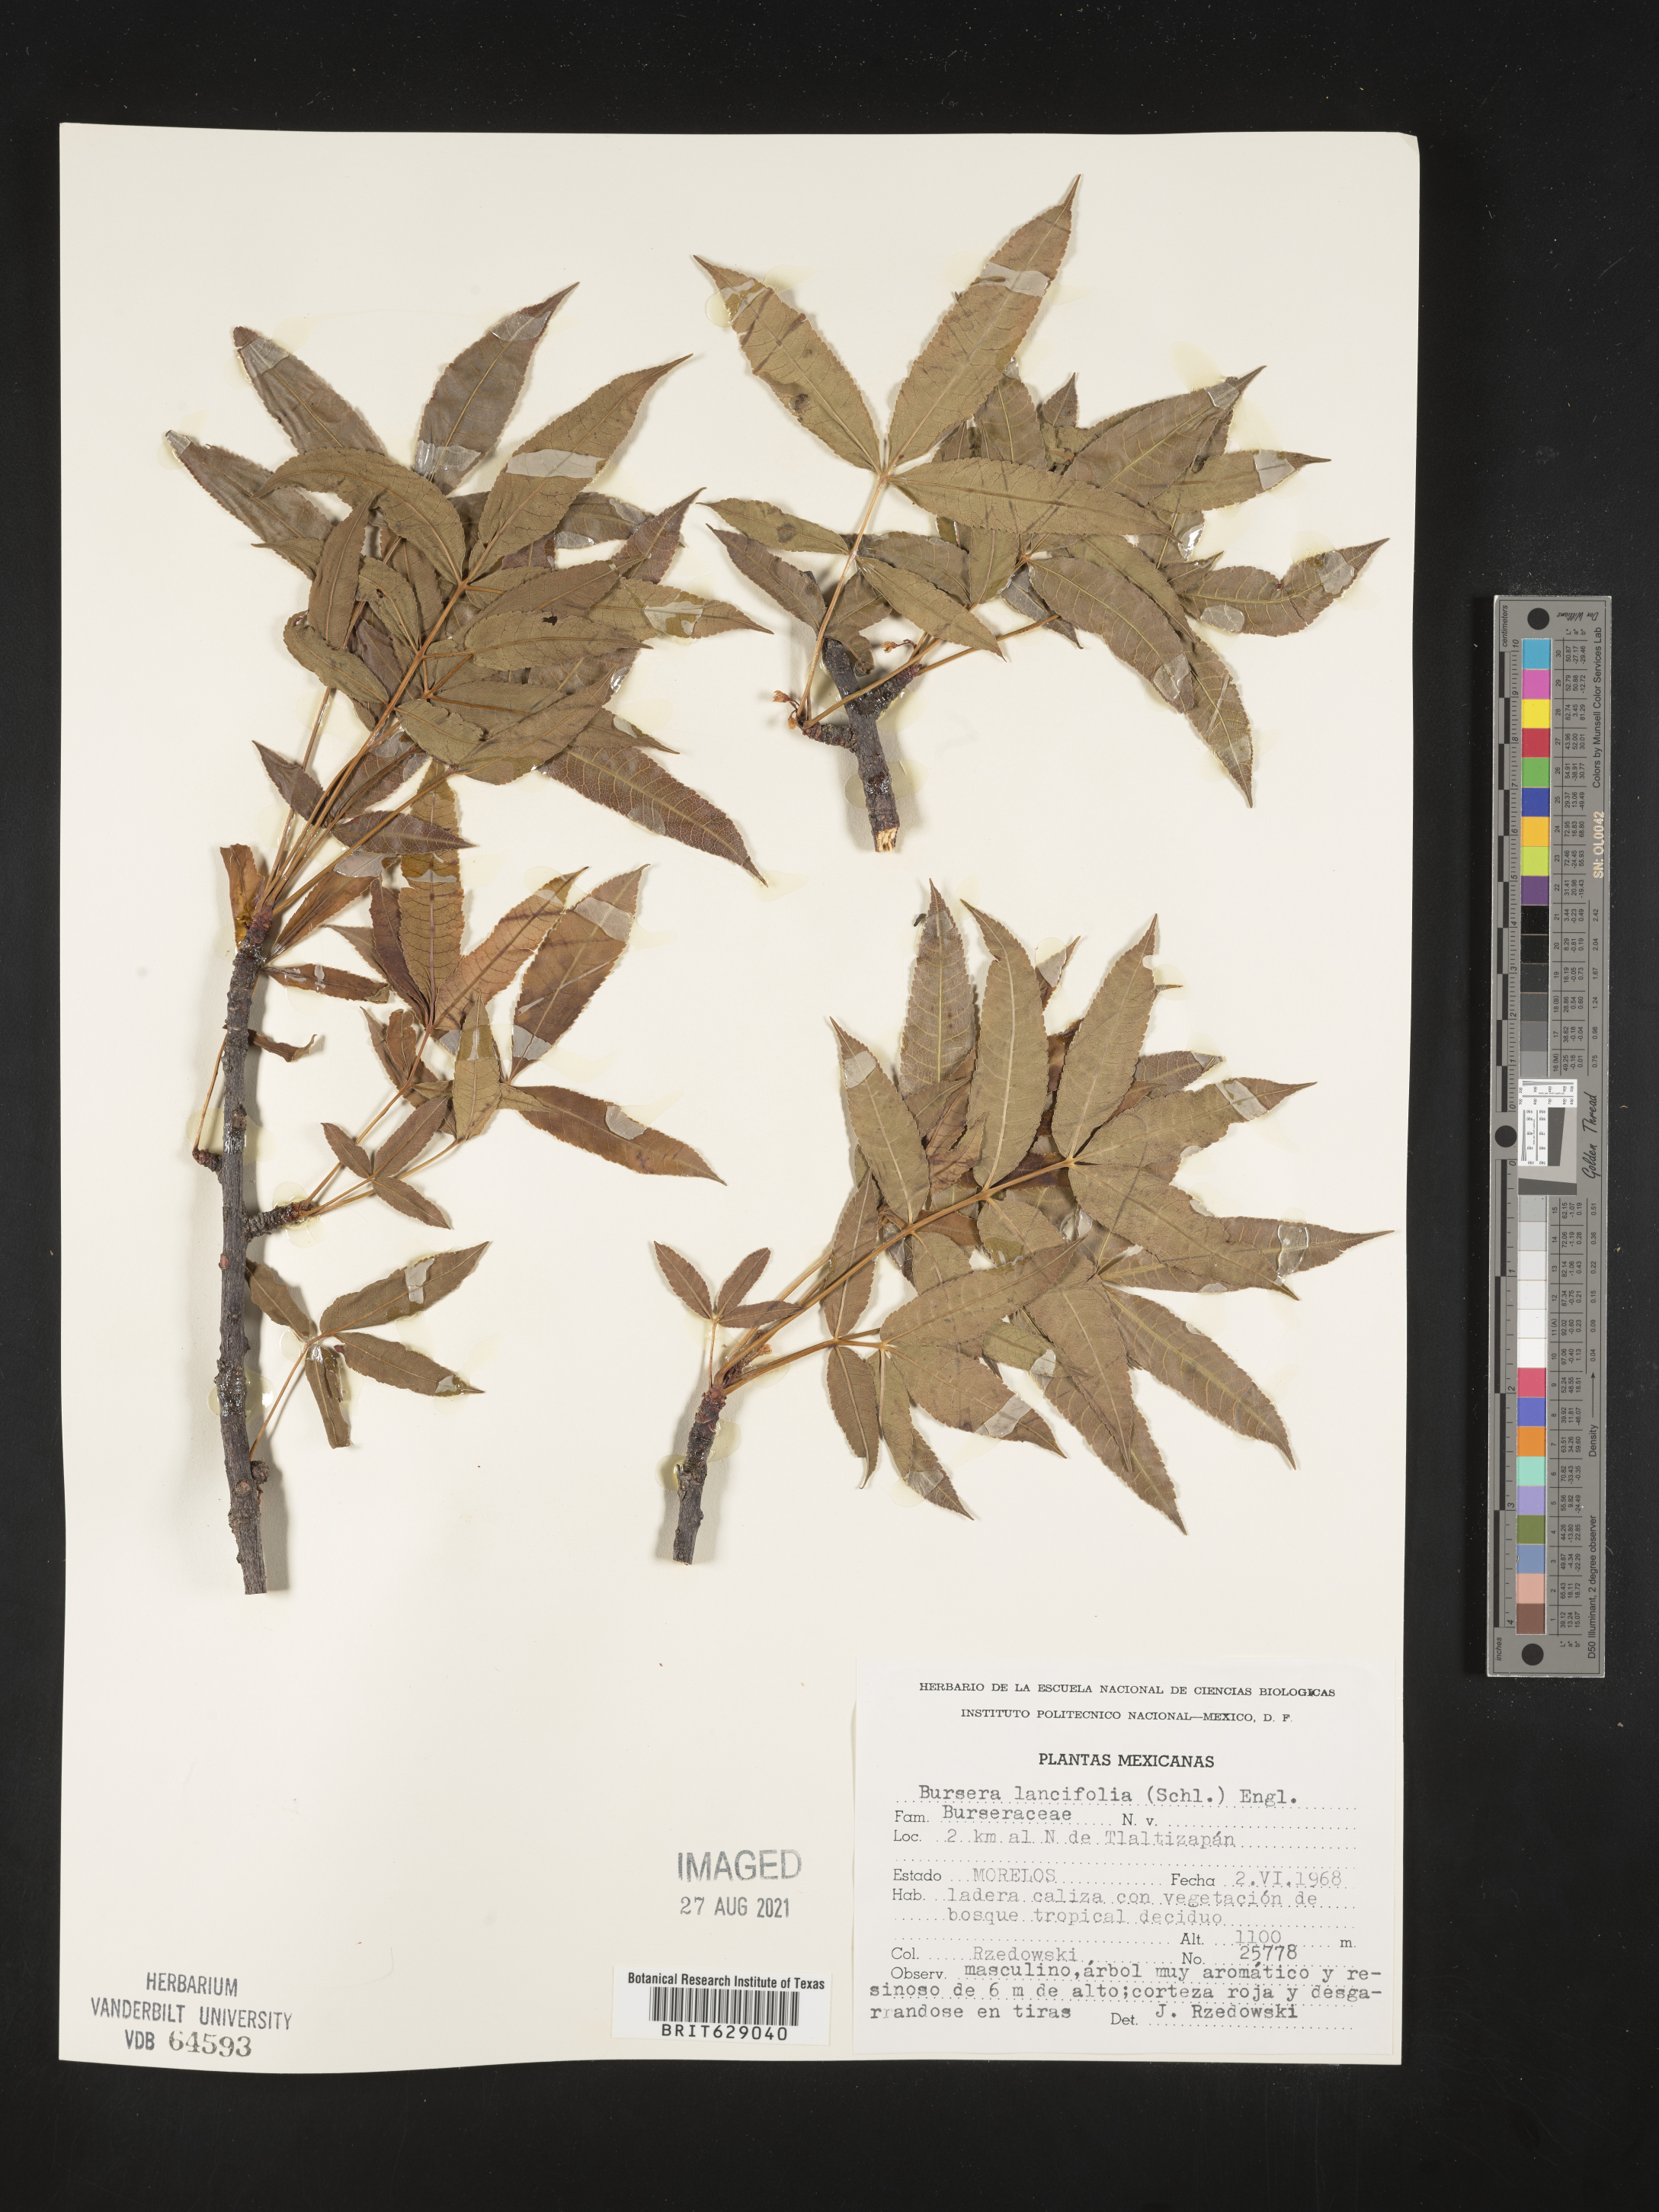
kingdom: Plantae
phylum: Tracheophyta
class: Magnoliopsida
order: Sapindales
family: Burseraceae
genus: Bursera
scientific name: Bursera
